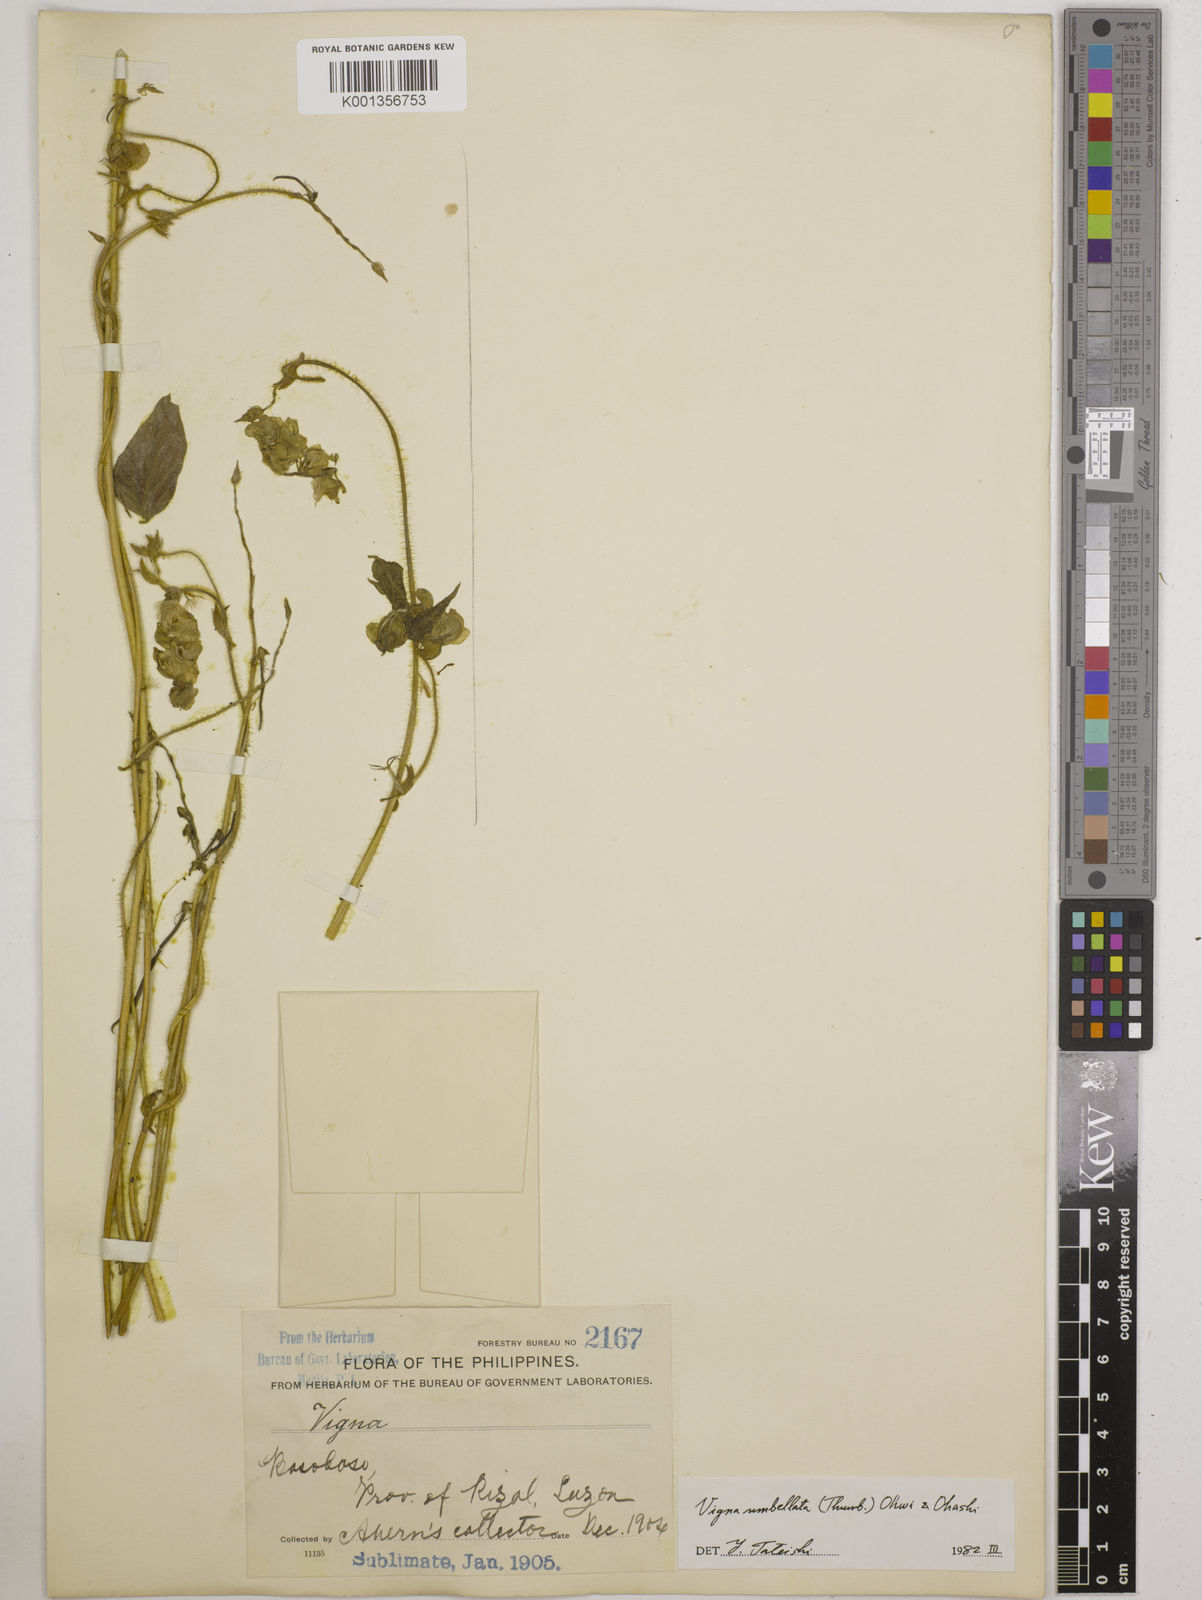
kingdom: Plantae
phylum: Tracheophyta
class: Magnoliopsida
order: Fabales
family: Fabaceae
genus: Vigna
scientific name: Vigna umbellata
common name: Oriental-bean
